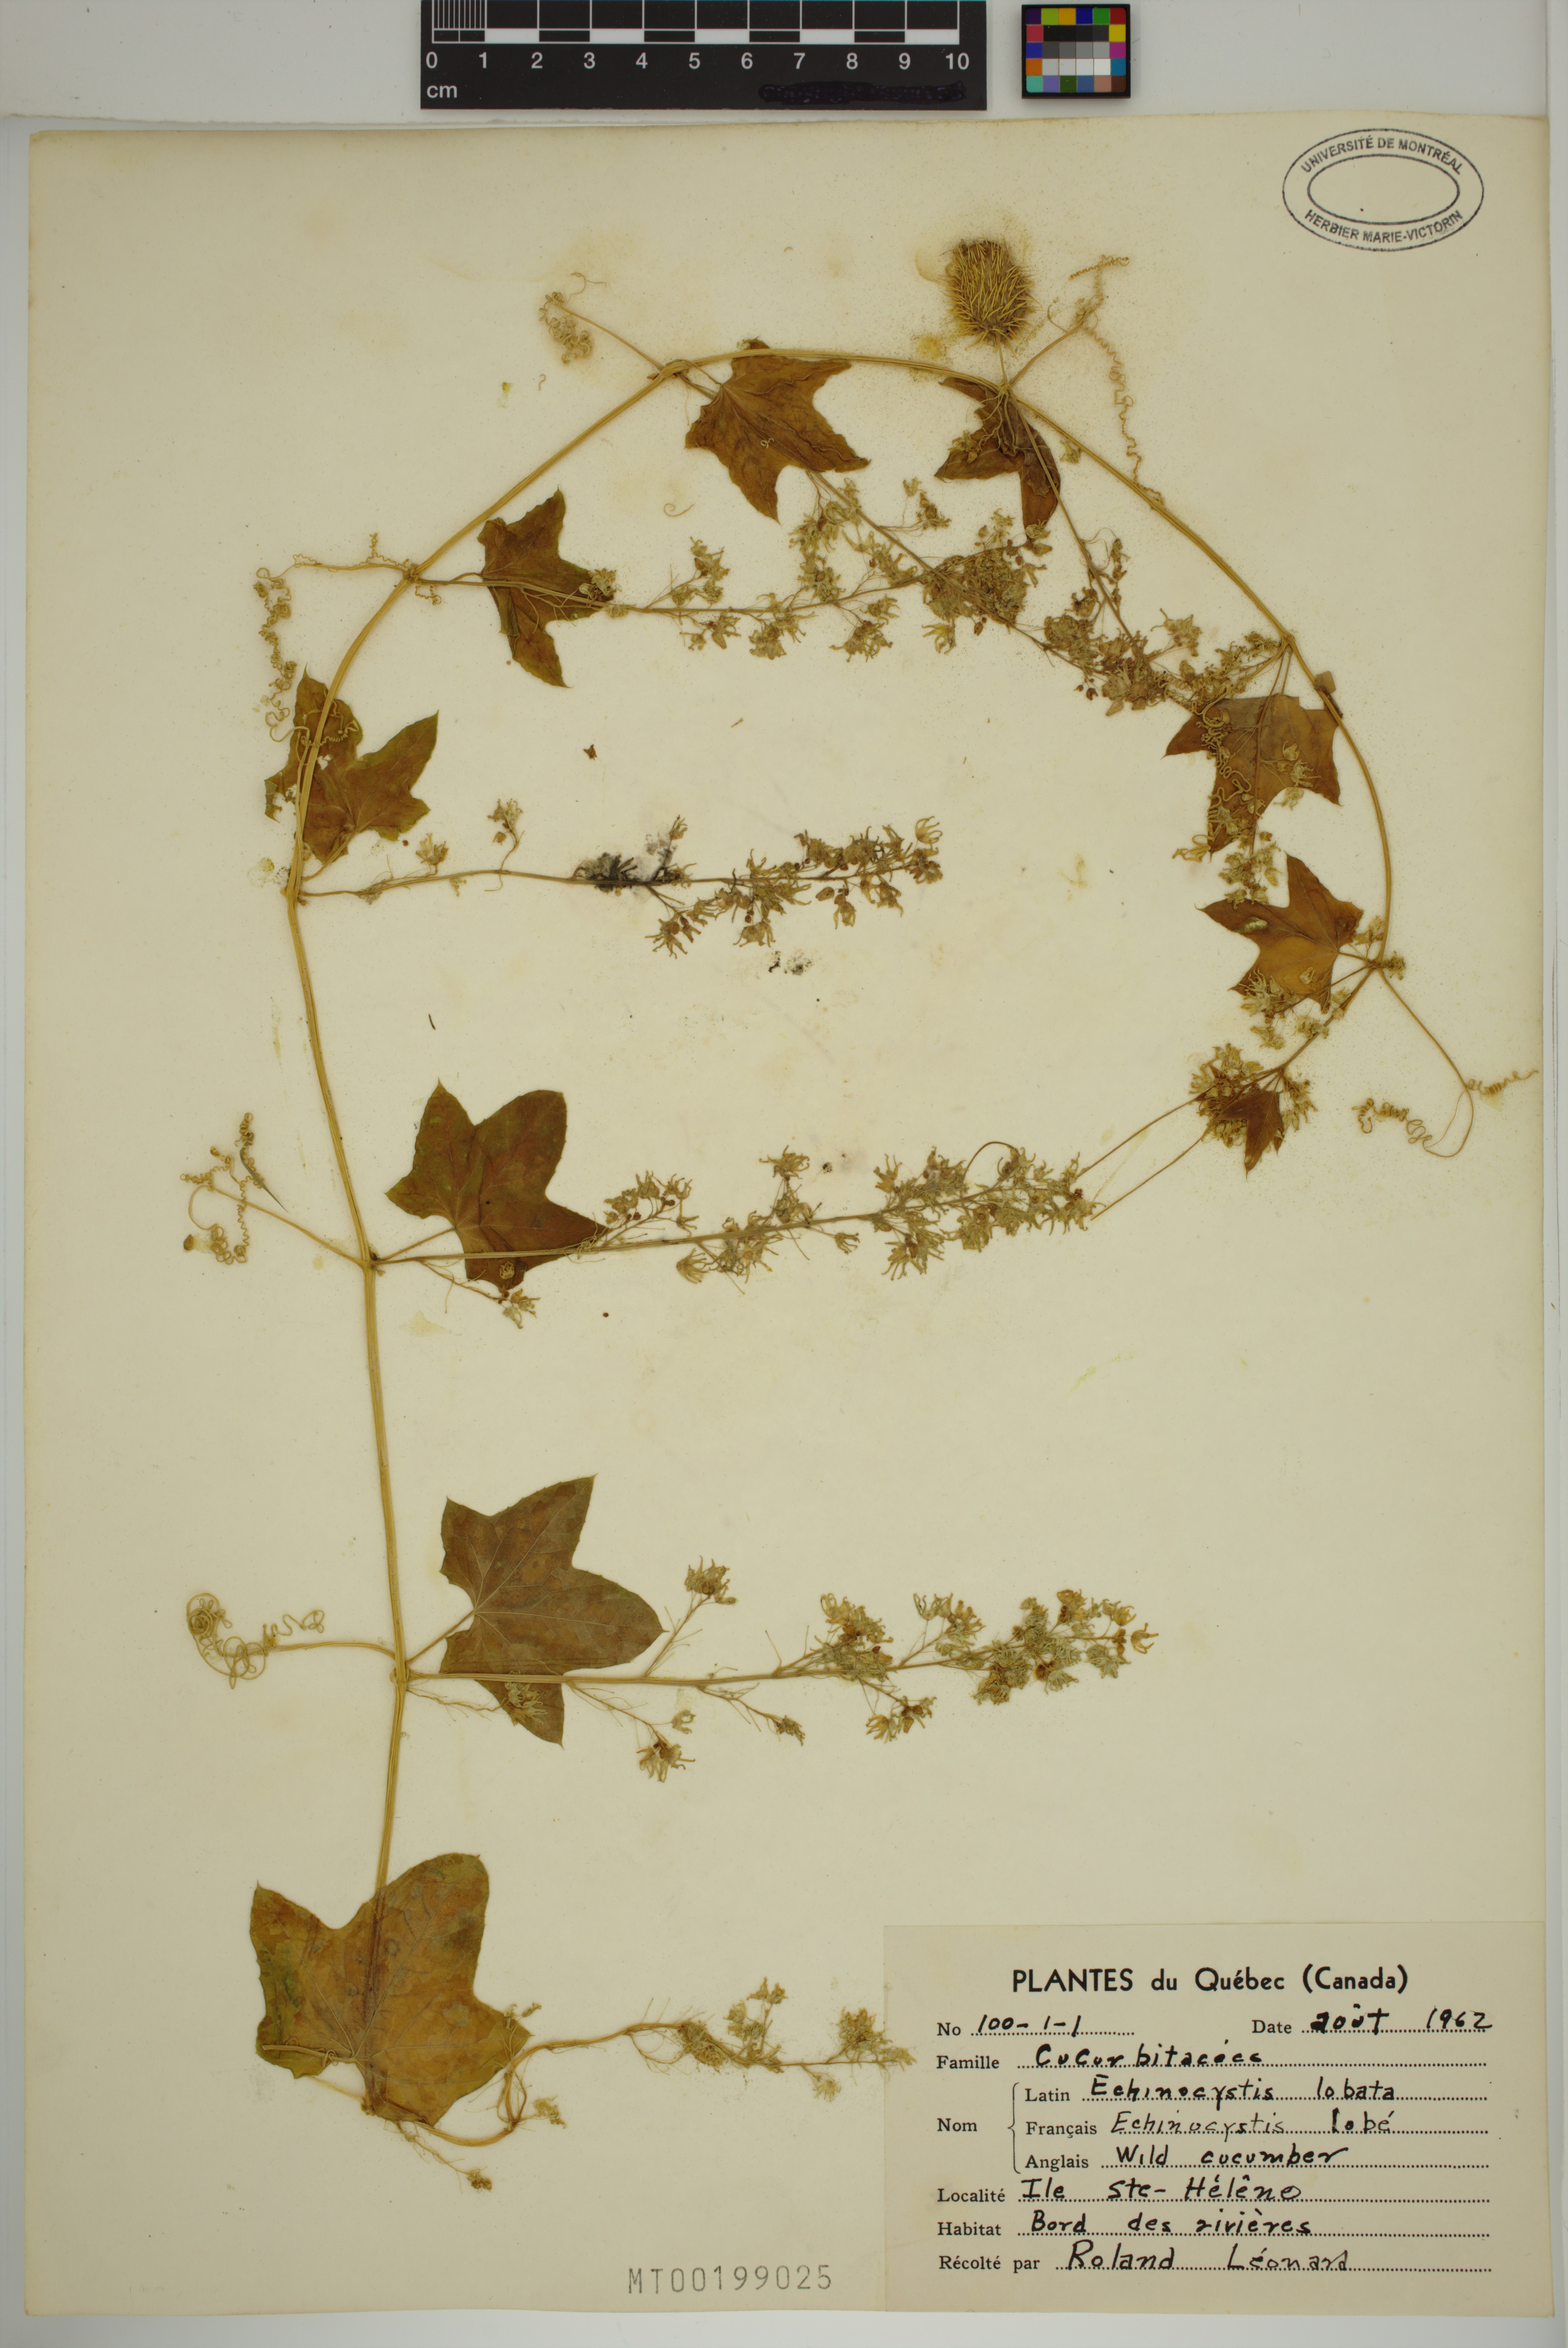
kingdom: Plantae
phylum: Tracheophyta
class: Magnoliopsida
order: Cucurbitales
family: Cucurbitaceae
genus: Echinocystis
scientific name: Echinocystis lobata
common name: Wild cucumber
